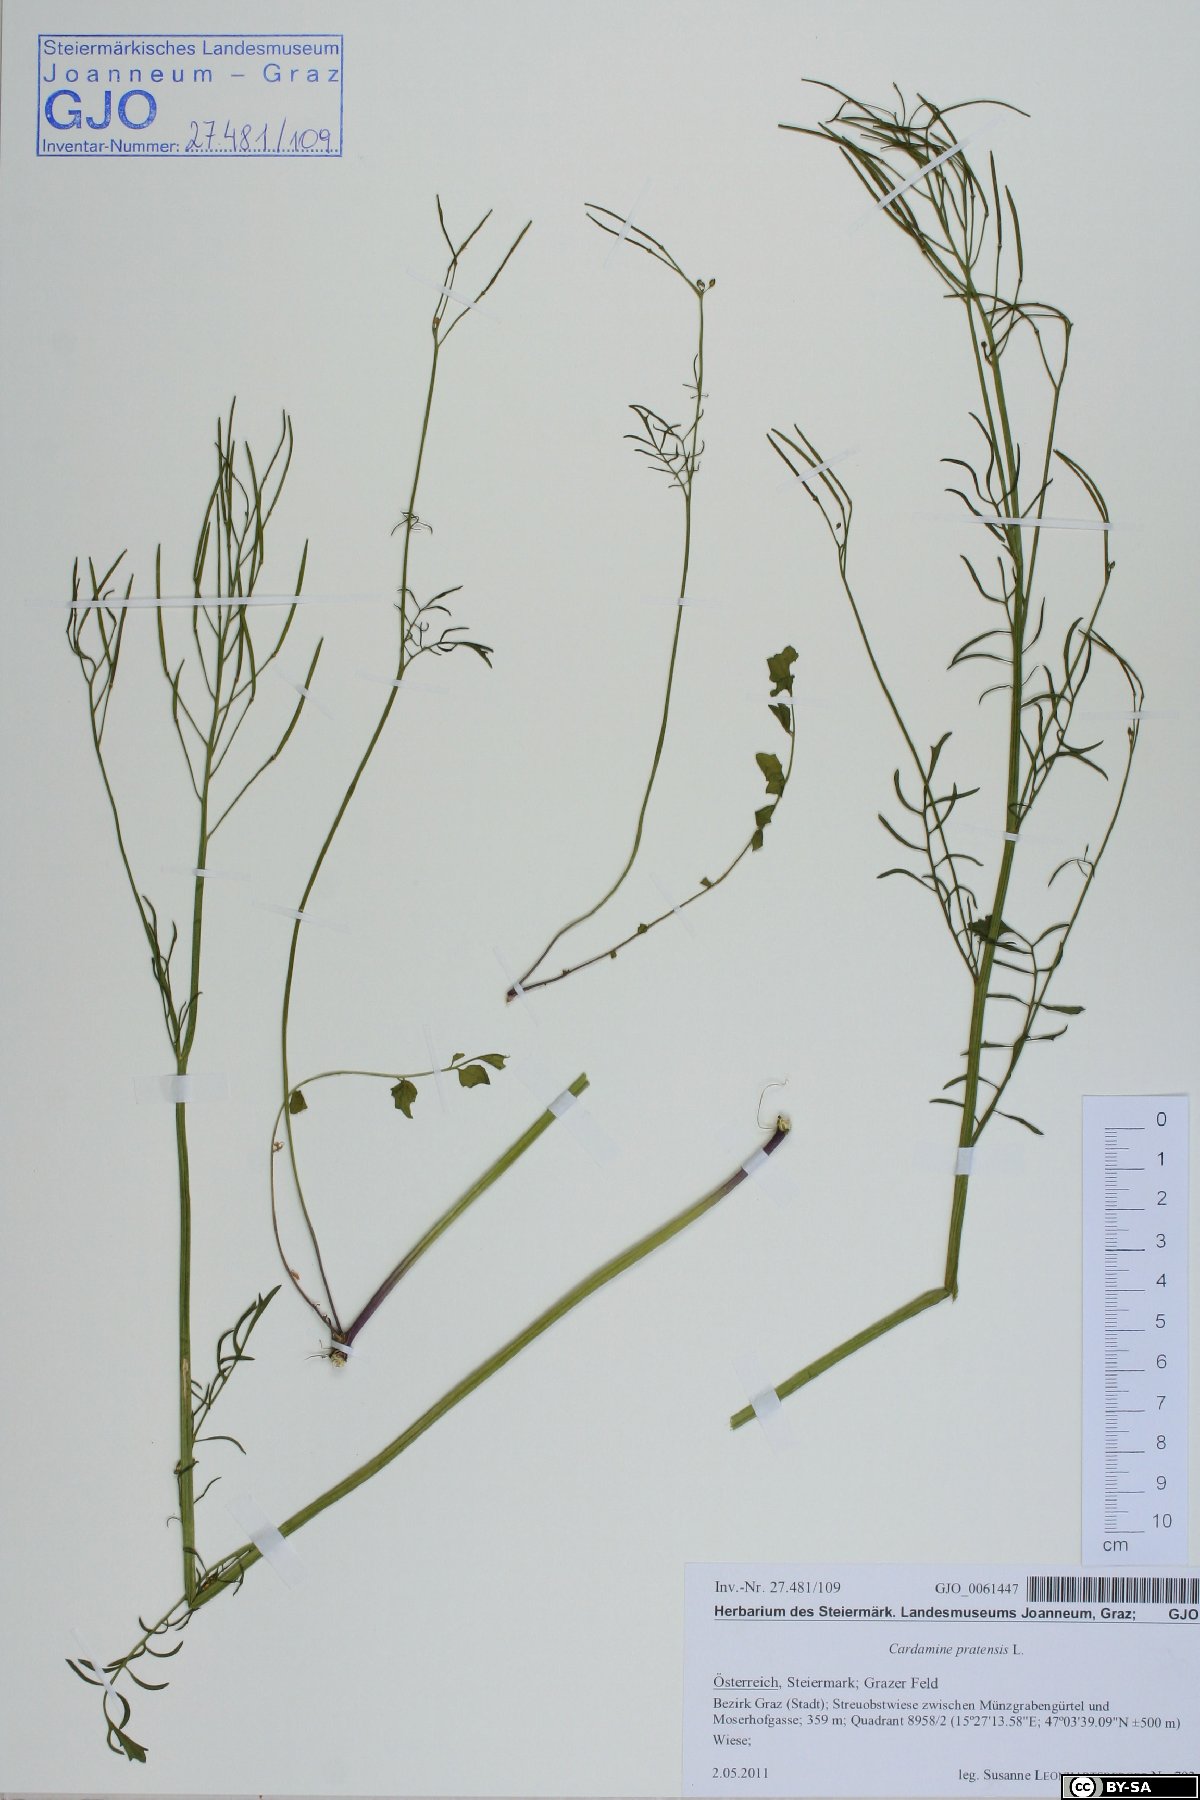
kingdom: Plantae
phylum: Tracheophyta
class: Magnoliopsida
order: Brassicales
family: Brassicaceae
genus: Cardamine
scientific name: Cardamine pratensis
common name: Cuckoo flower
